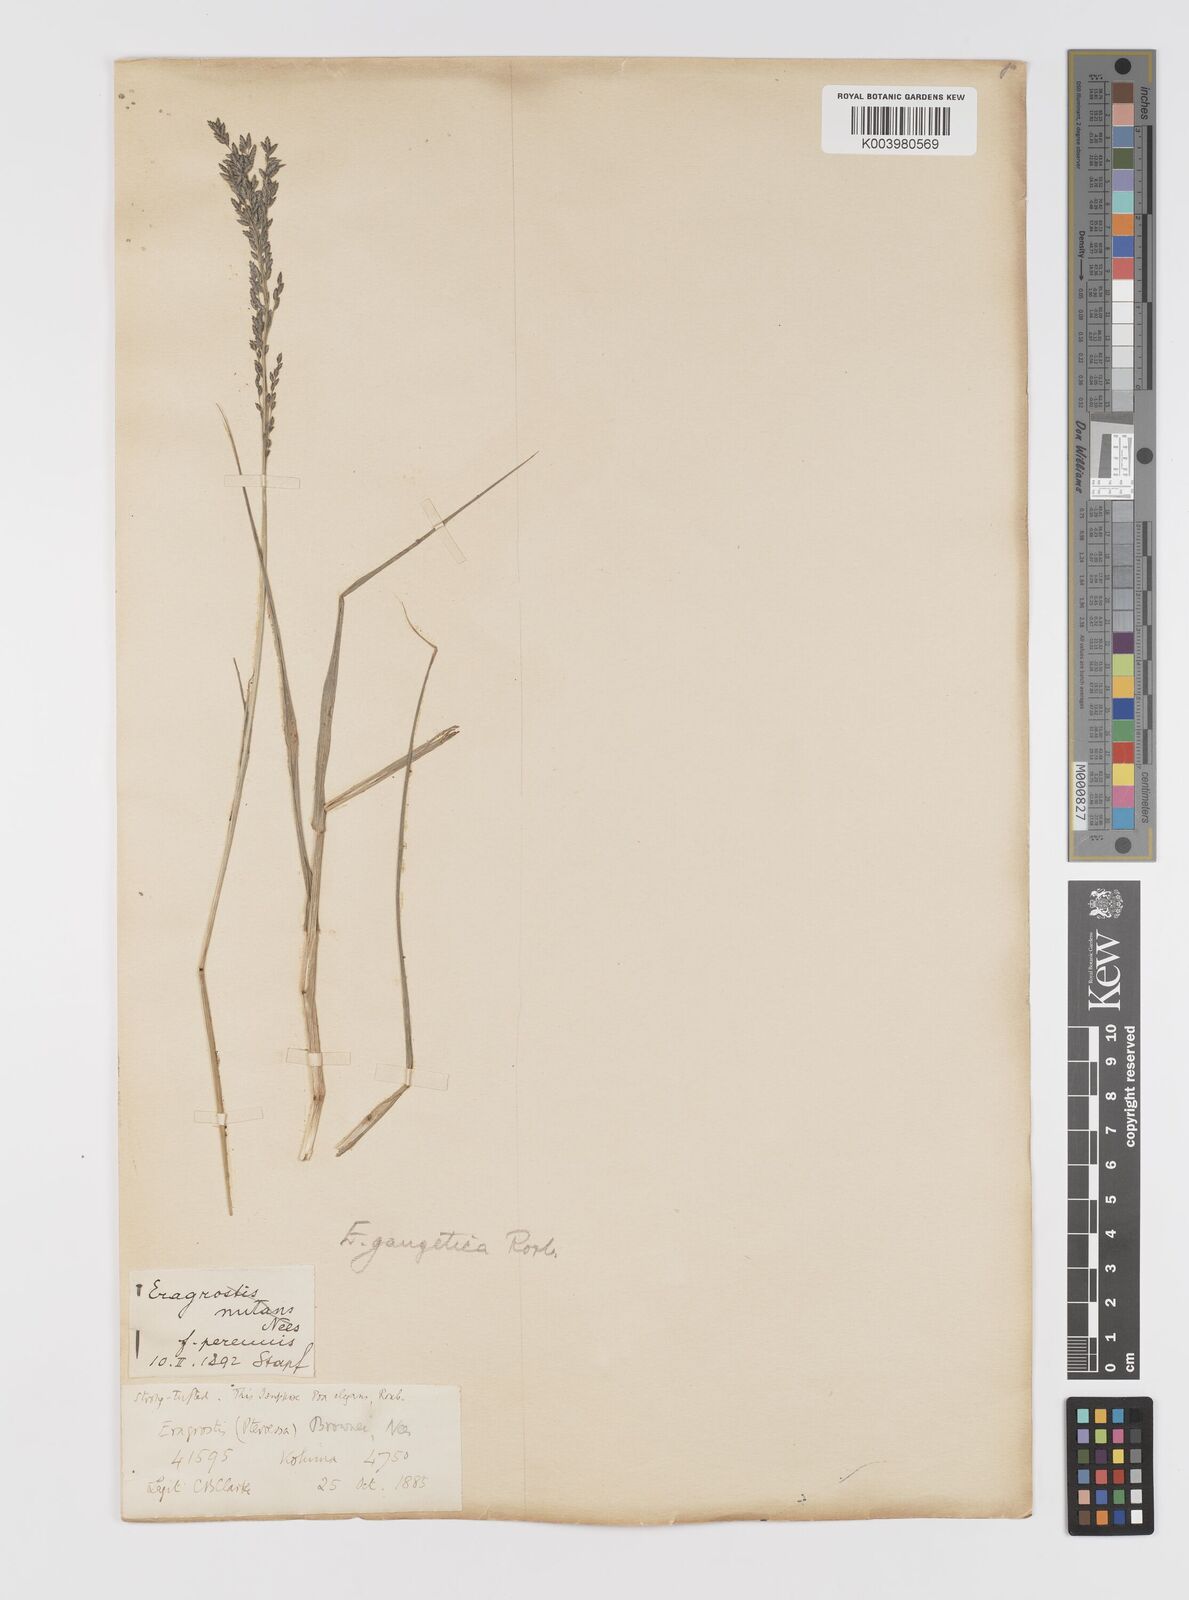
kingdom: Plantae
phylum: Tracheophyta
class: Liliopsida
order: Poales
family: Poaceae
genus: Eragrostis
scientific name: Eragrostis atrovirens
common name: Thalia lovegrass
